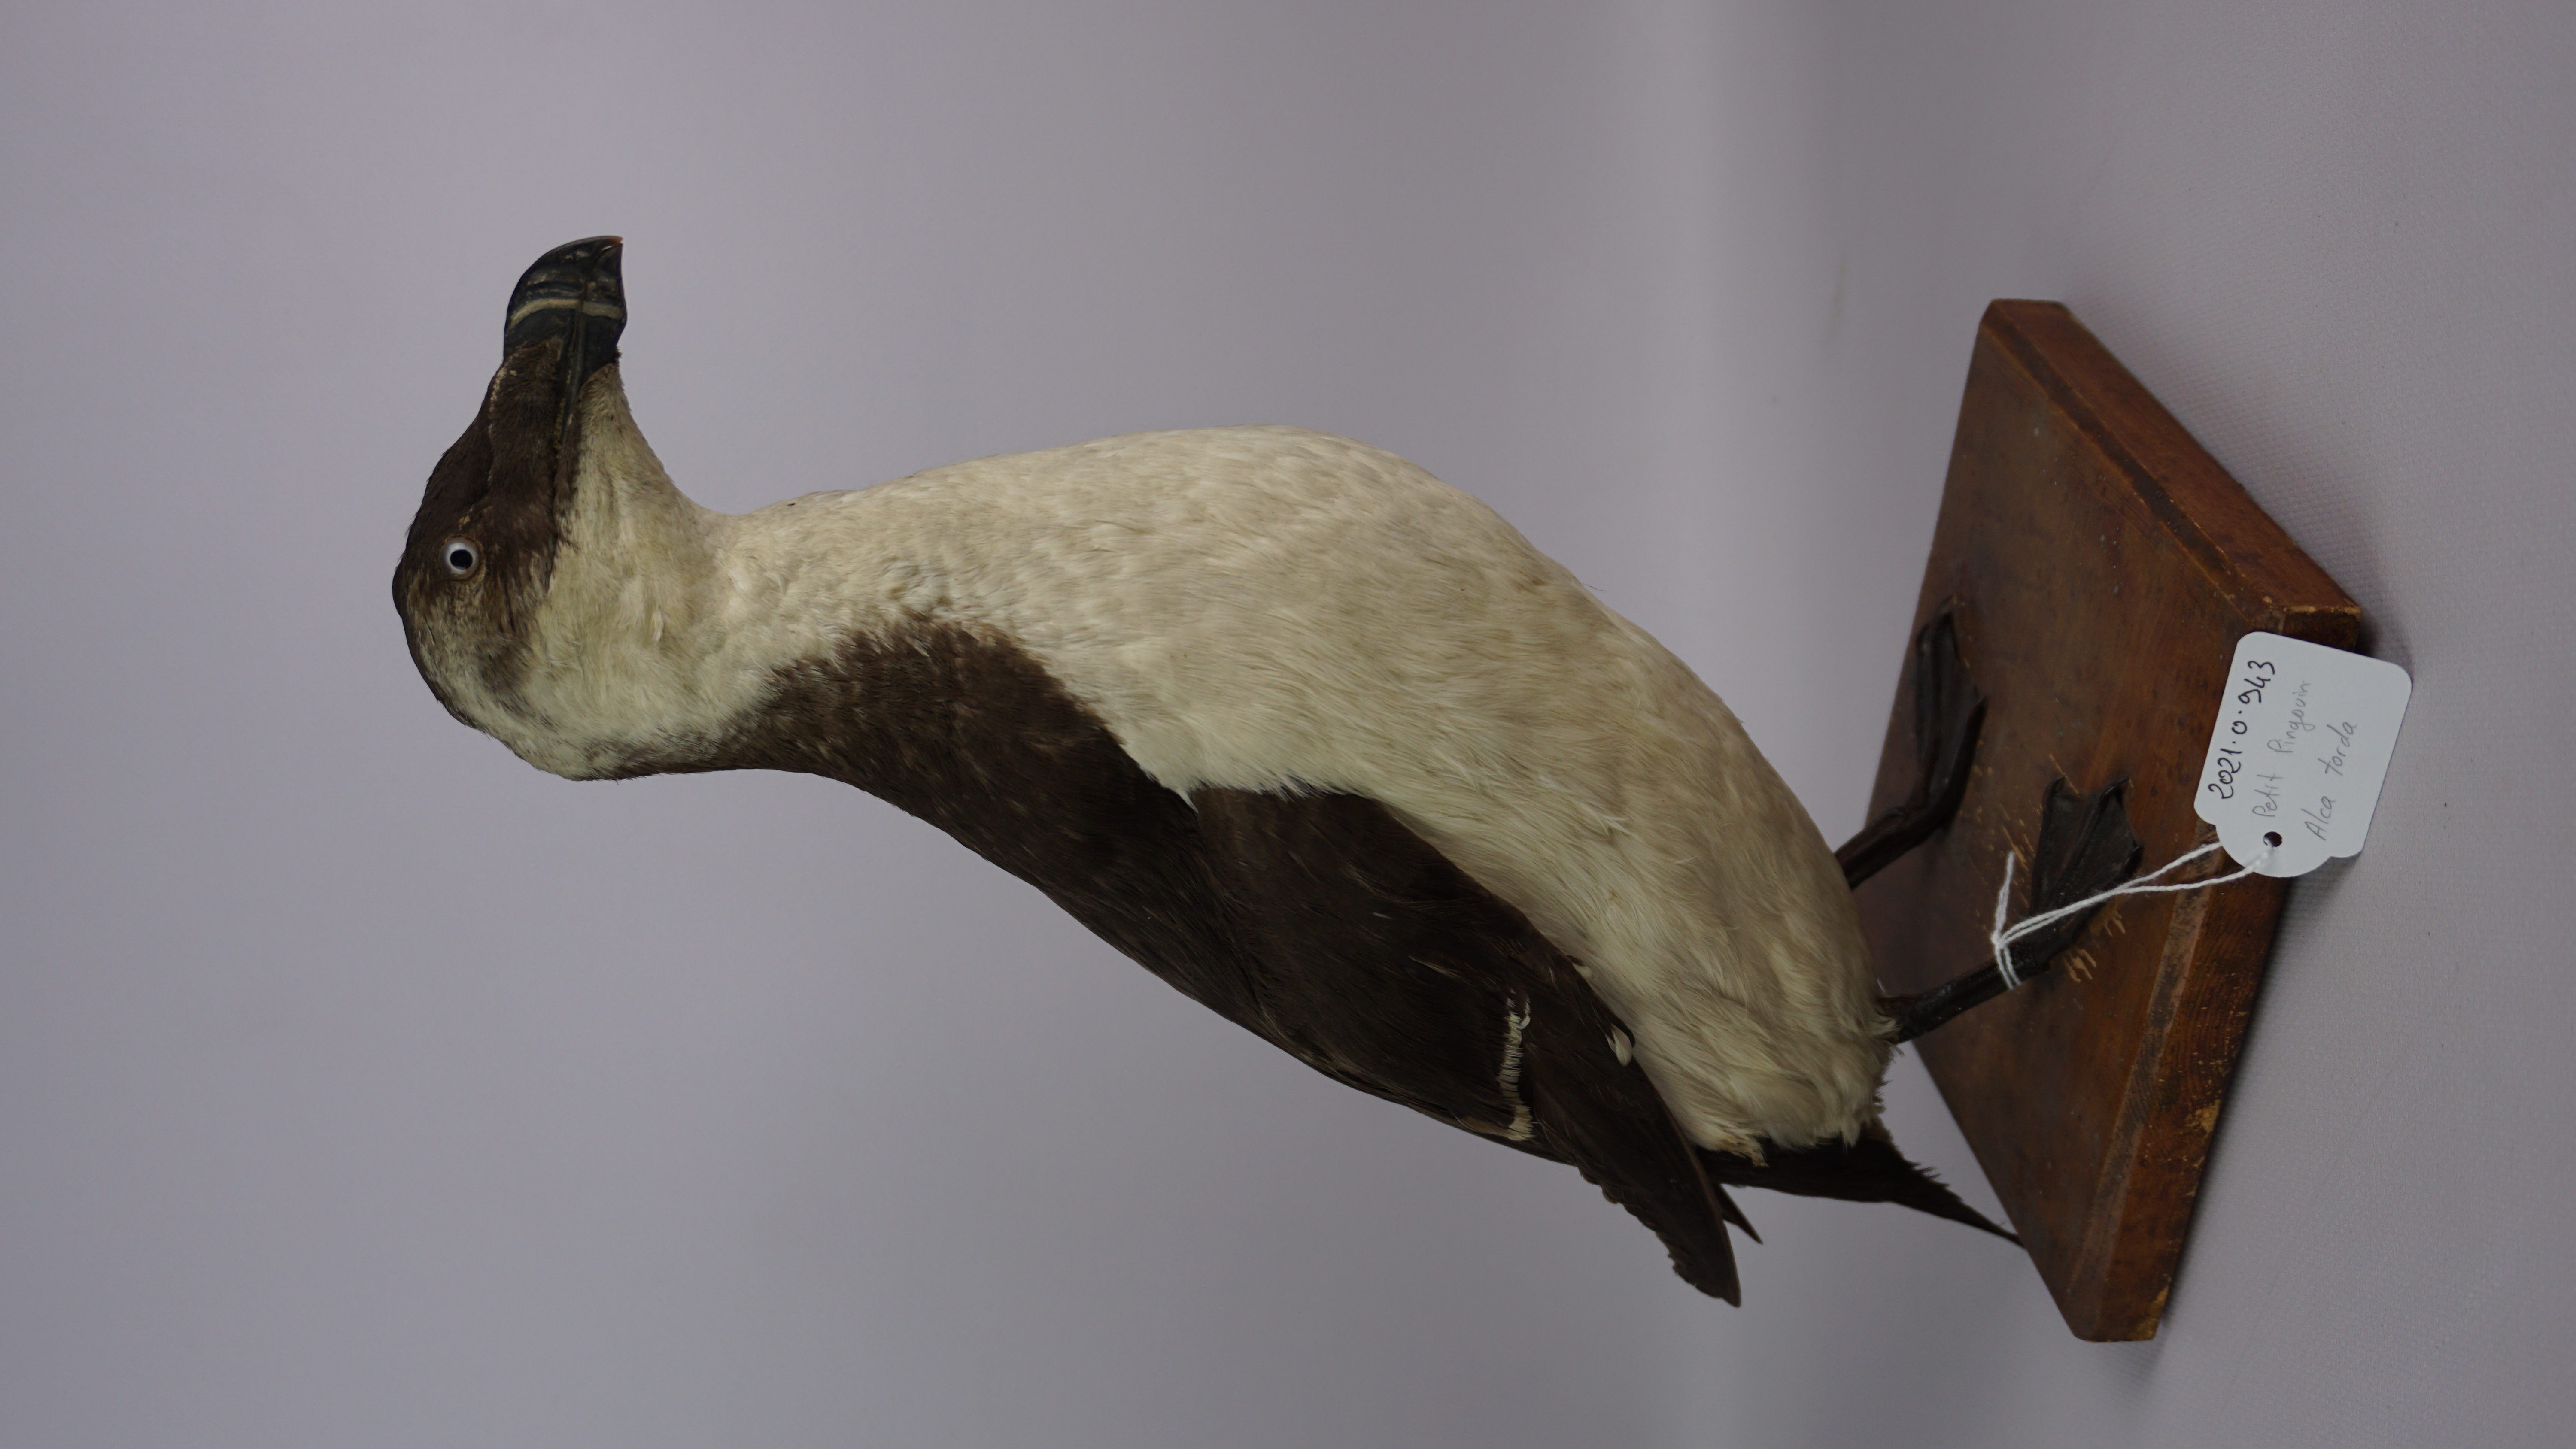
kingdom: Animalia
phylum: Chordata
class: Aves
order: Charadriiformes
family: Alcidae
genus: Alca
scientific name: Alca torda
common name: Razorbill
